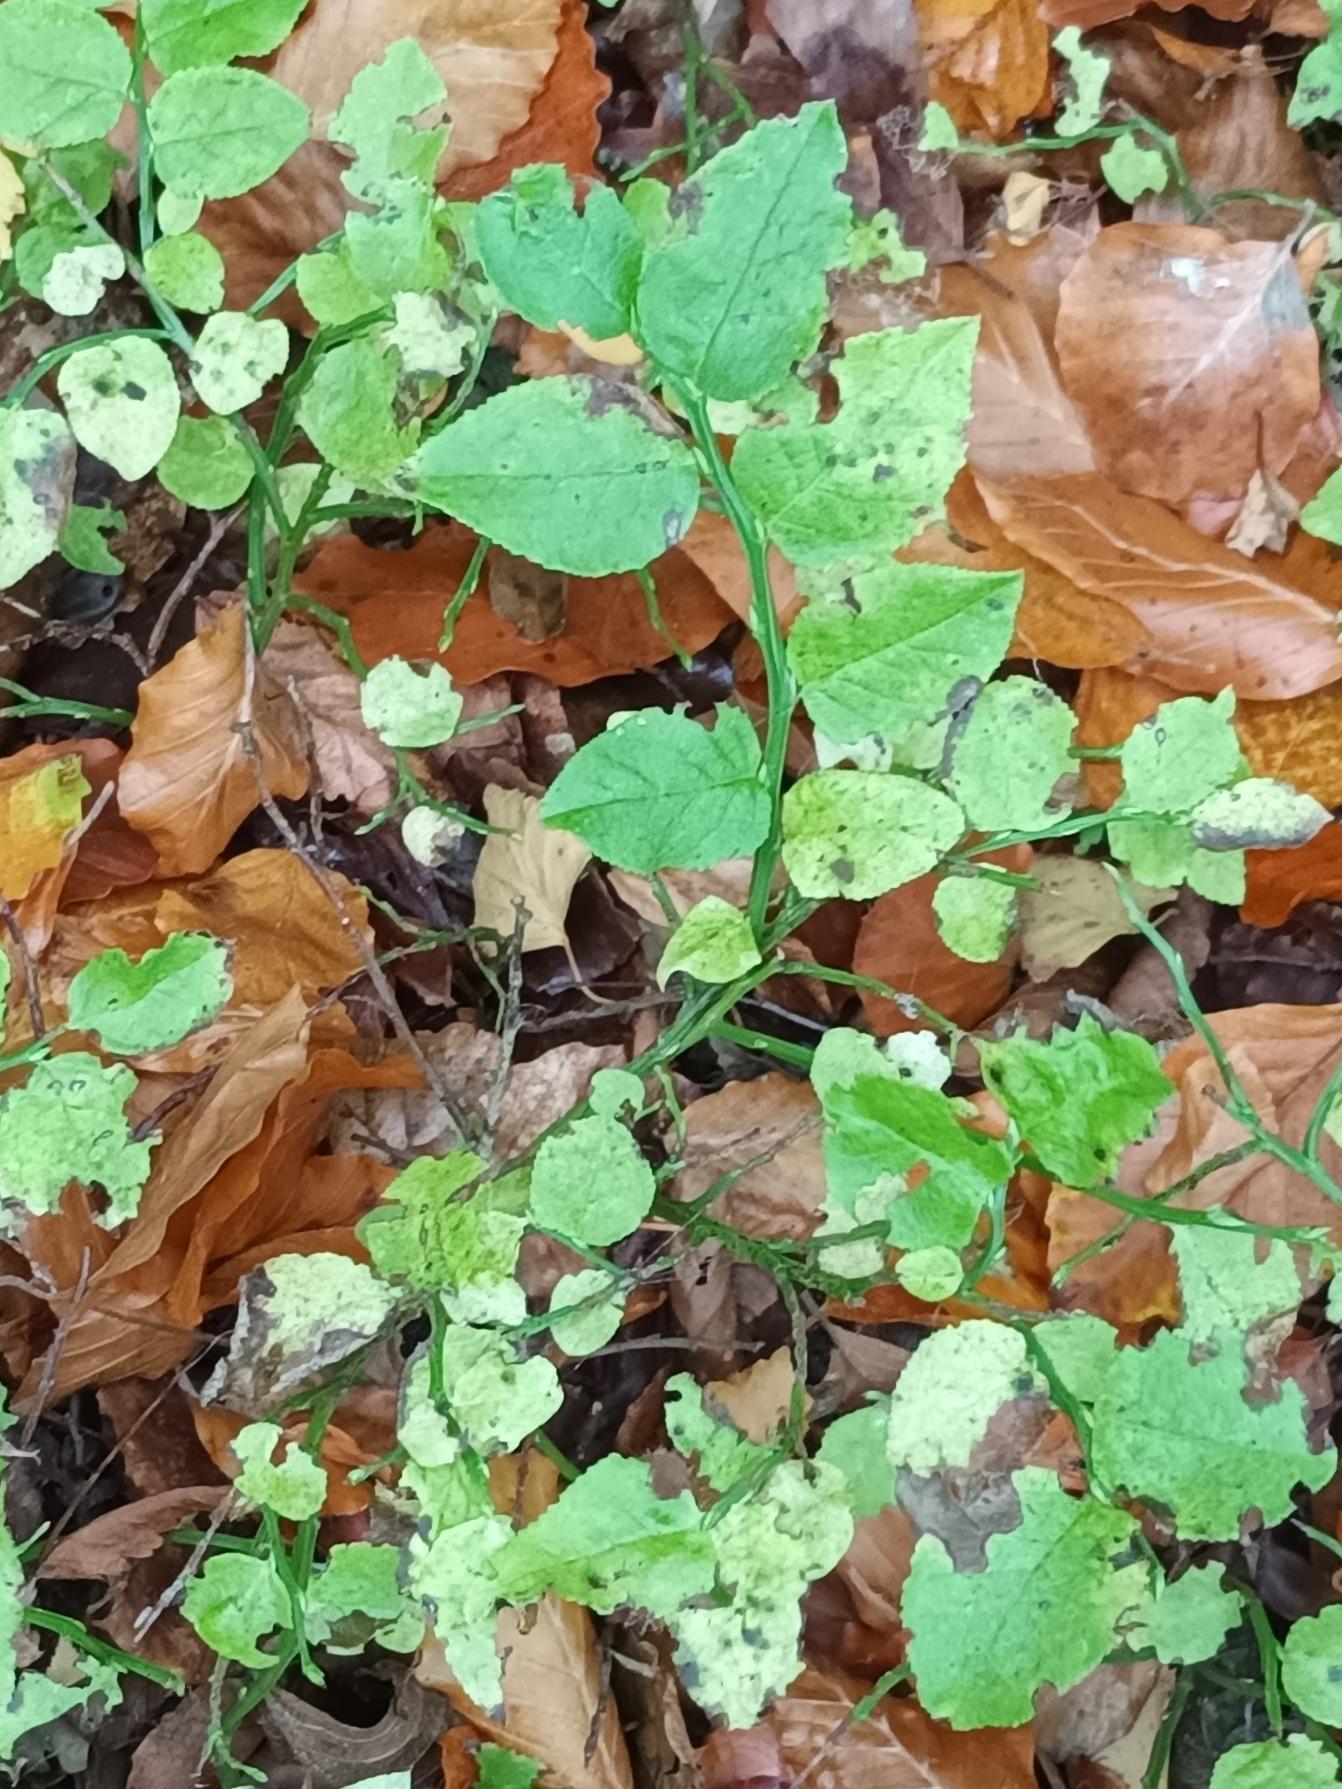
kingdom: Plantae
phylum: Tracheophyta
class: Magnoliopsida
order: Ericales
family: Ericaceae
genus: Vaccinium
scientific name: Vaccinium myrtillus
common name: Blåbær
